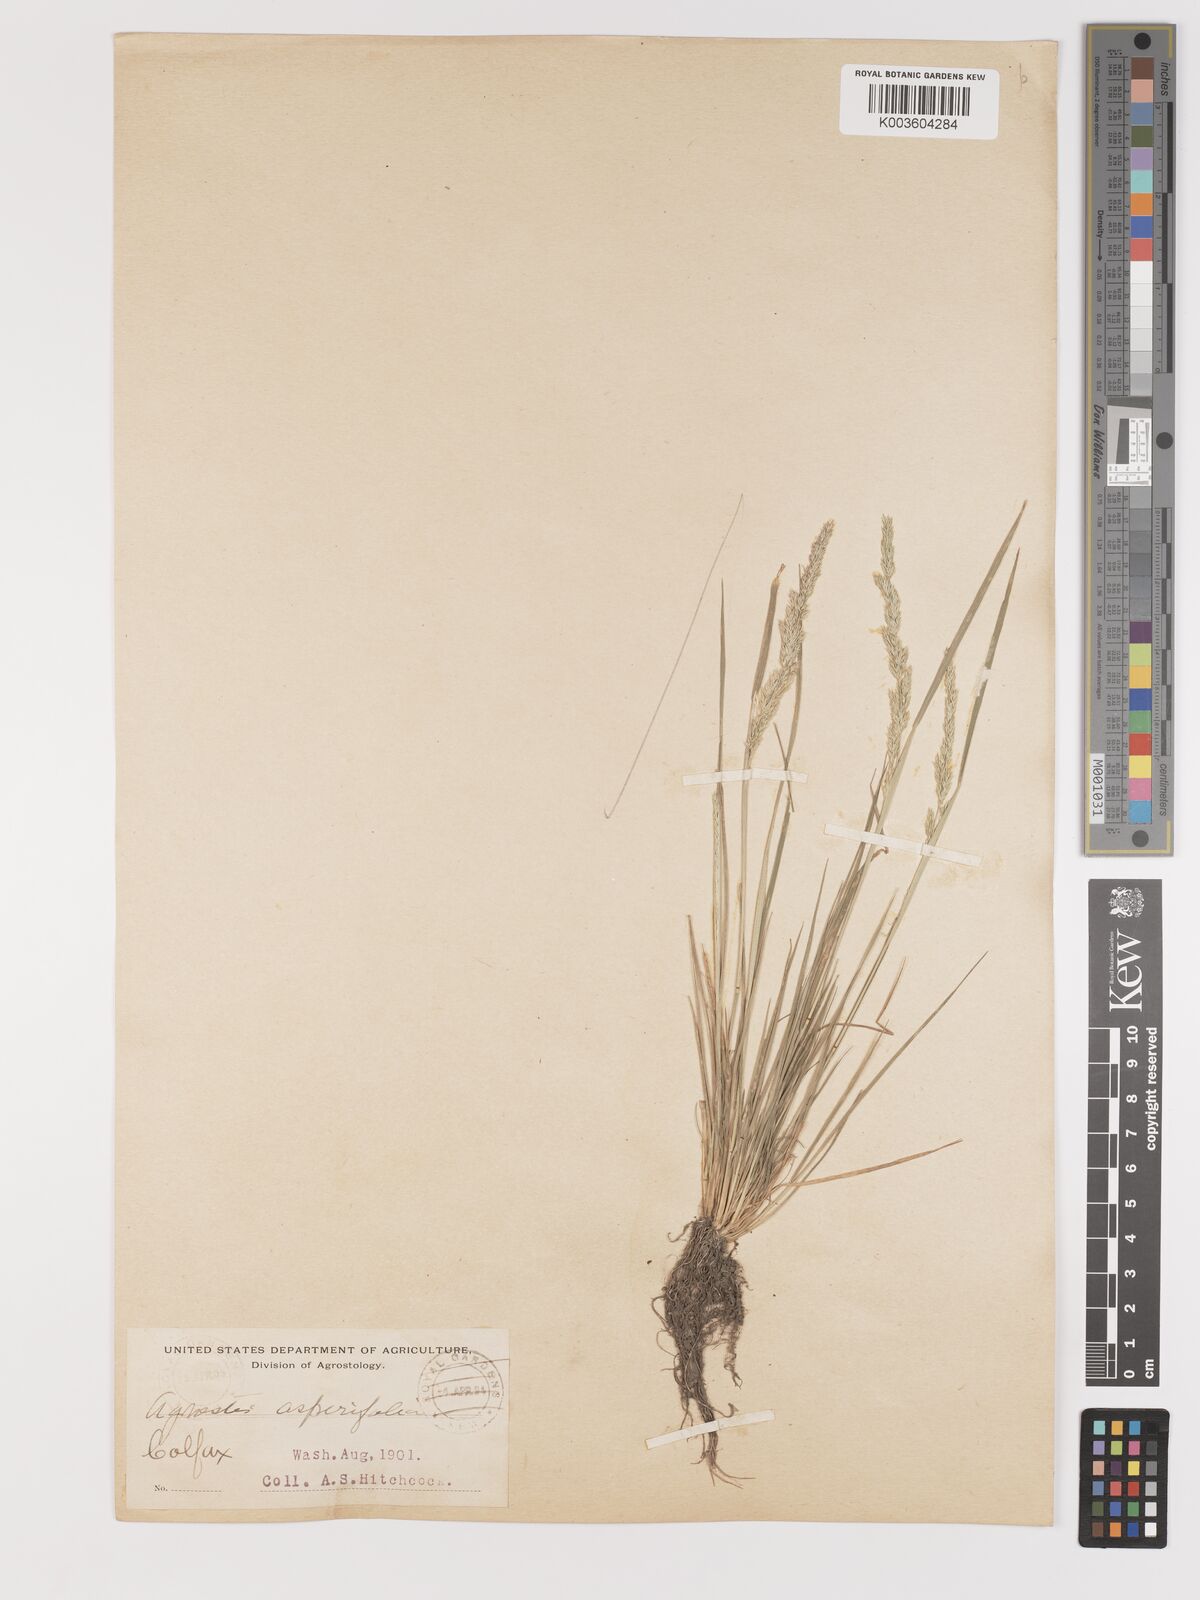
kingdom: Plantae
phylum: Tracheophyta
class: Liliopsida
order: Poales
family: Poaceae
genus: Agrostis
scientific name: Agrostis exarata
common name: Spike bent
